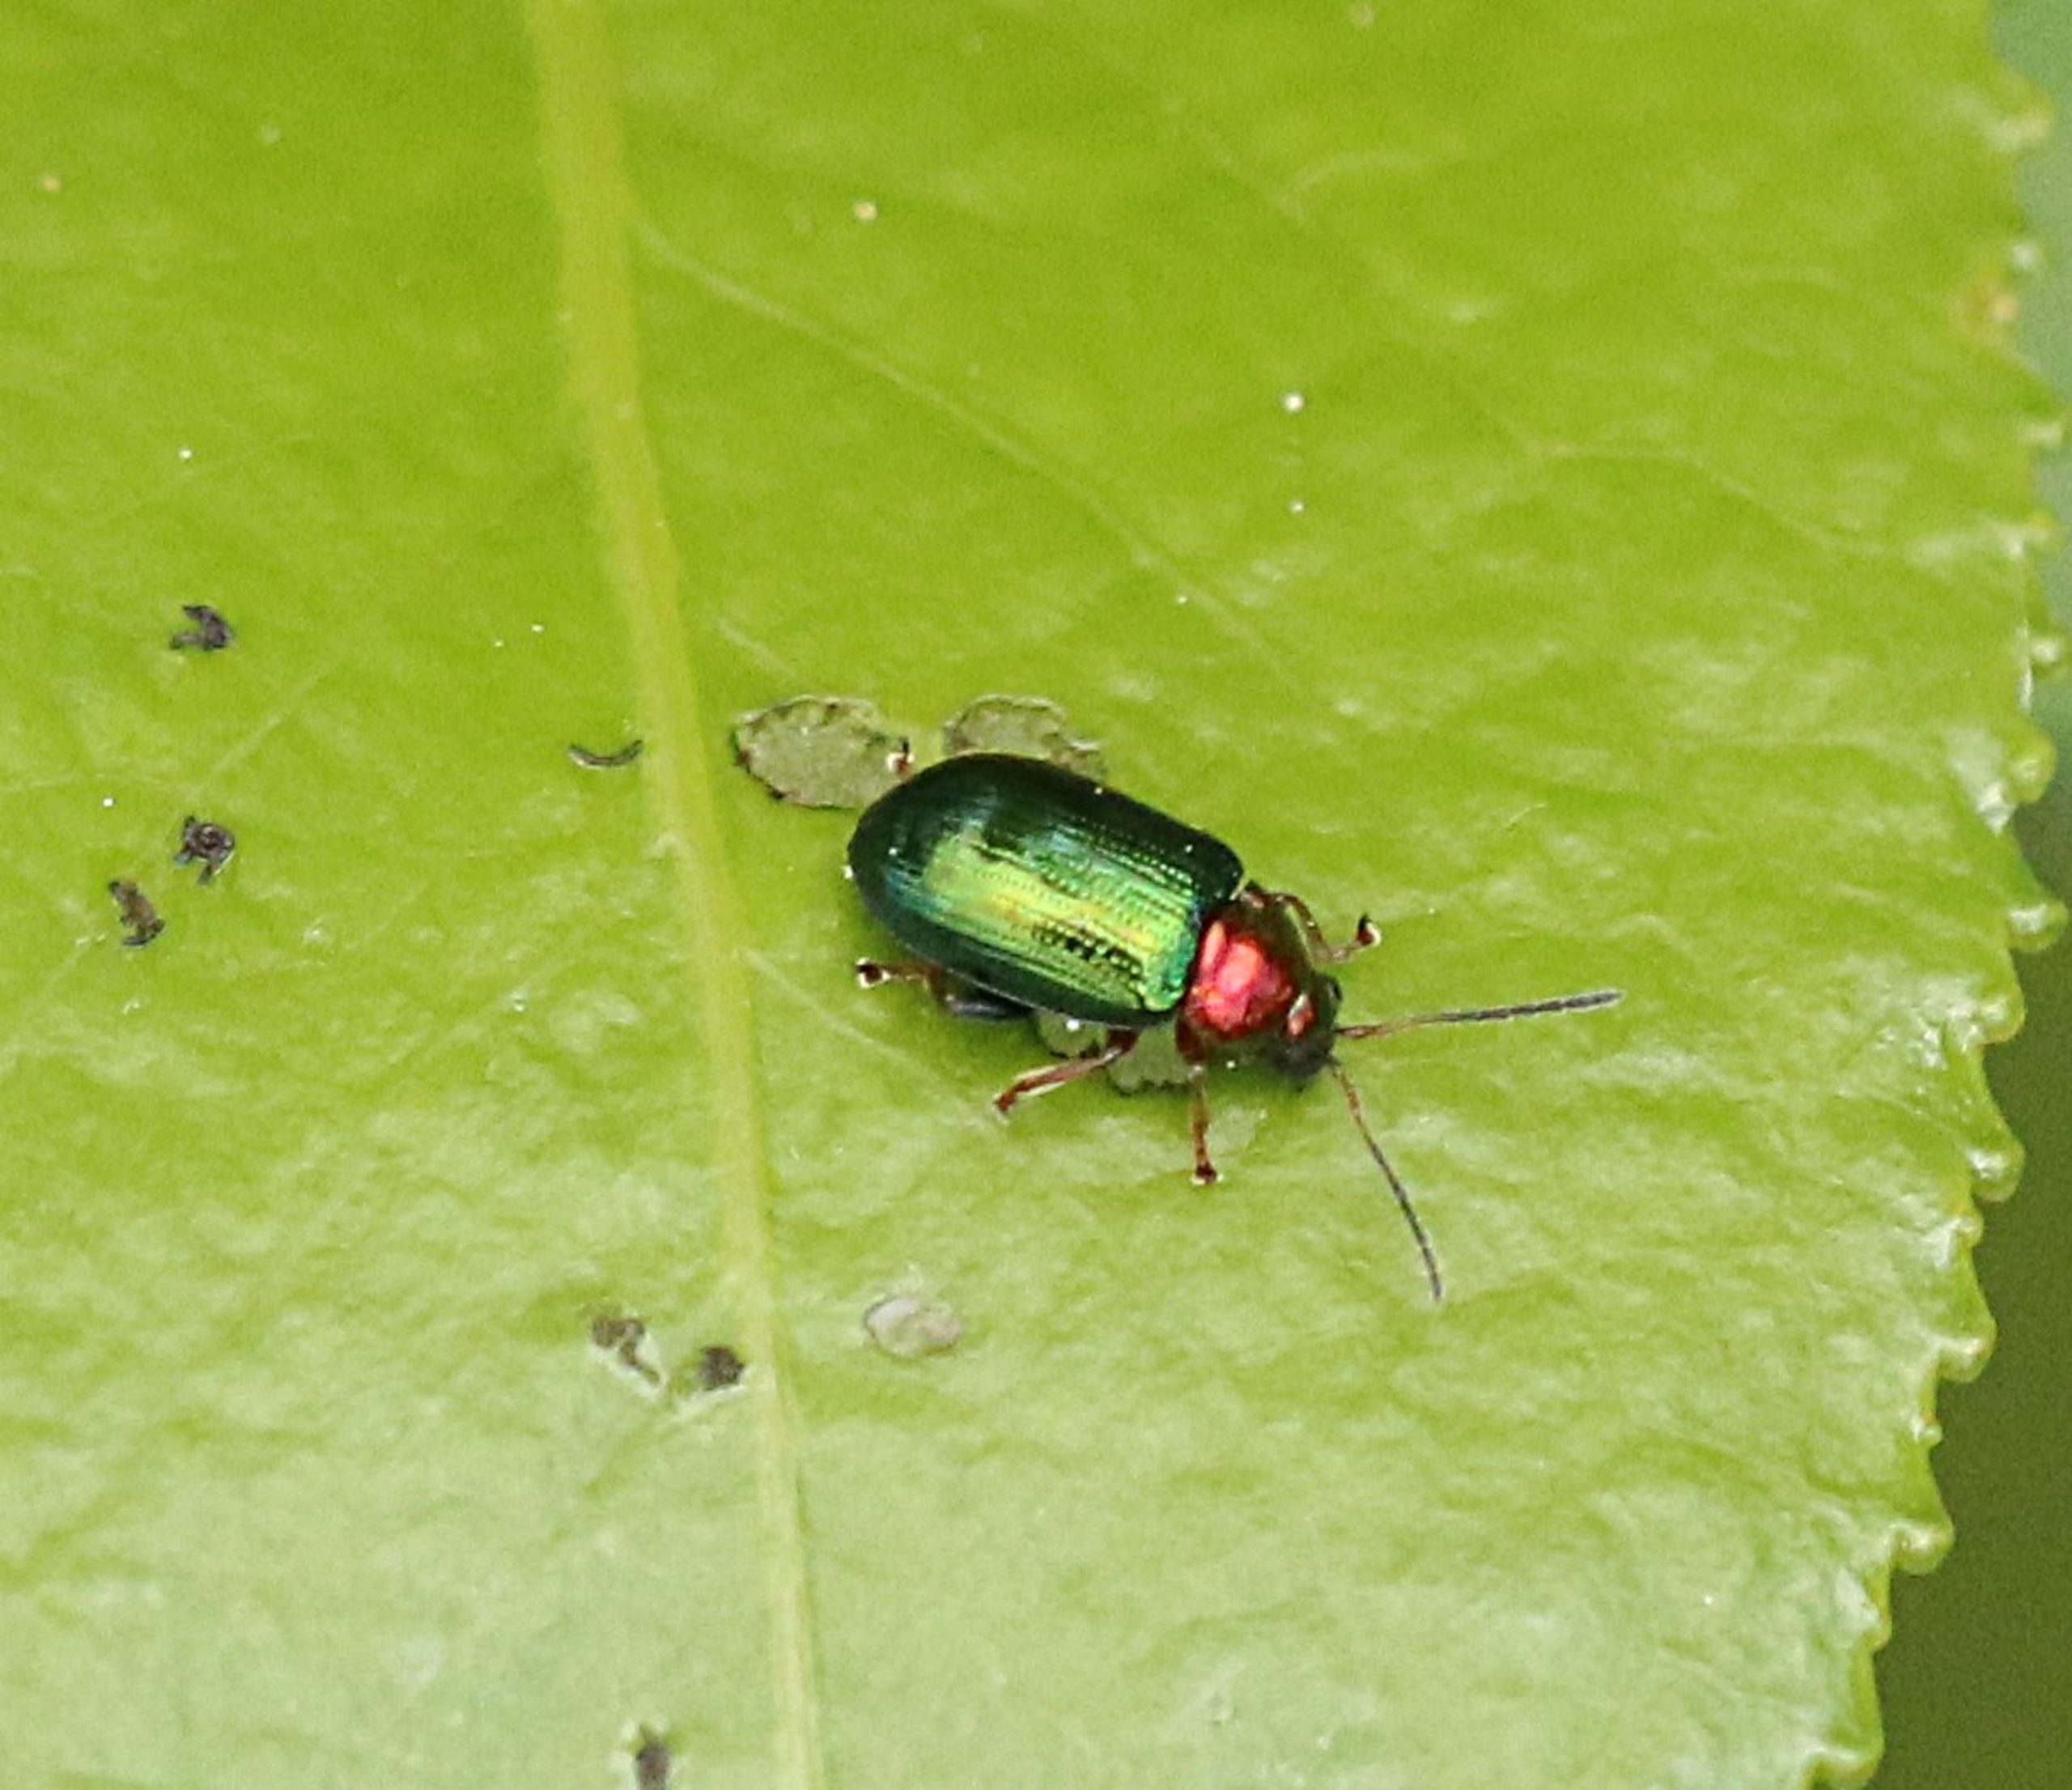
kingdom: Animalia
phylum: Arthropoda
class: Insecta
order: Coleoptera
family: Chrysomelidae
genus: Crepidodera
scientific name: Crepidodera aurata
